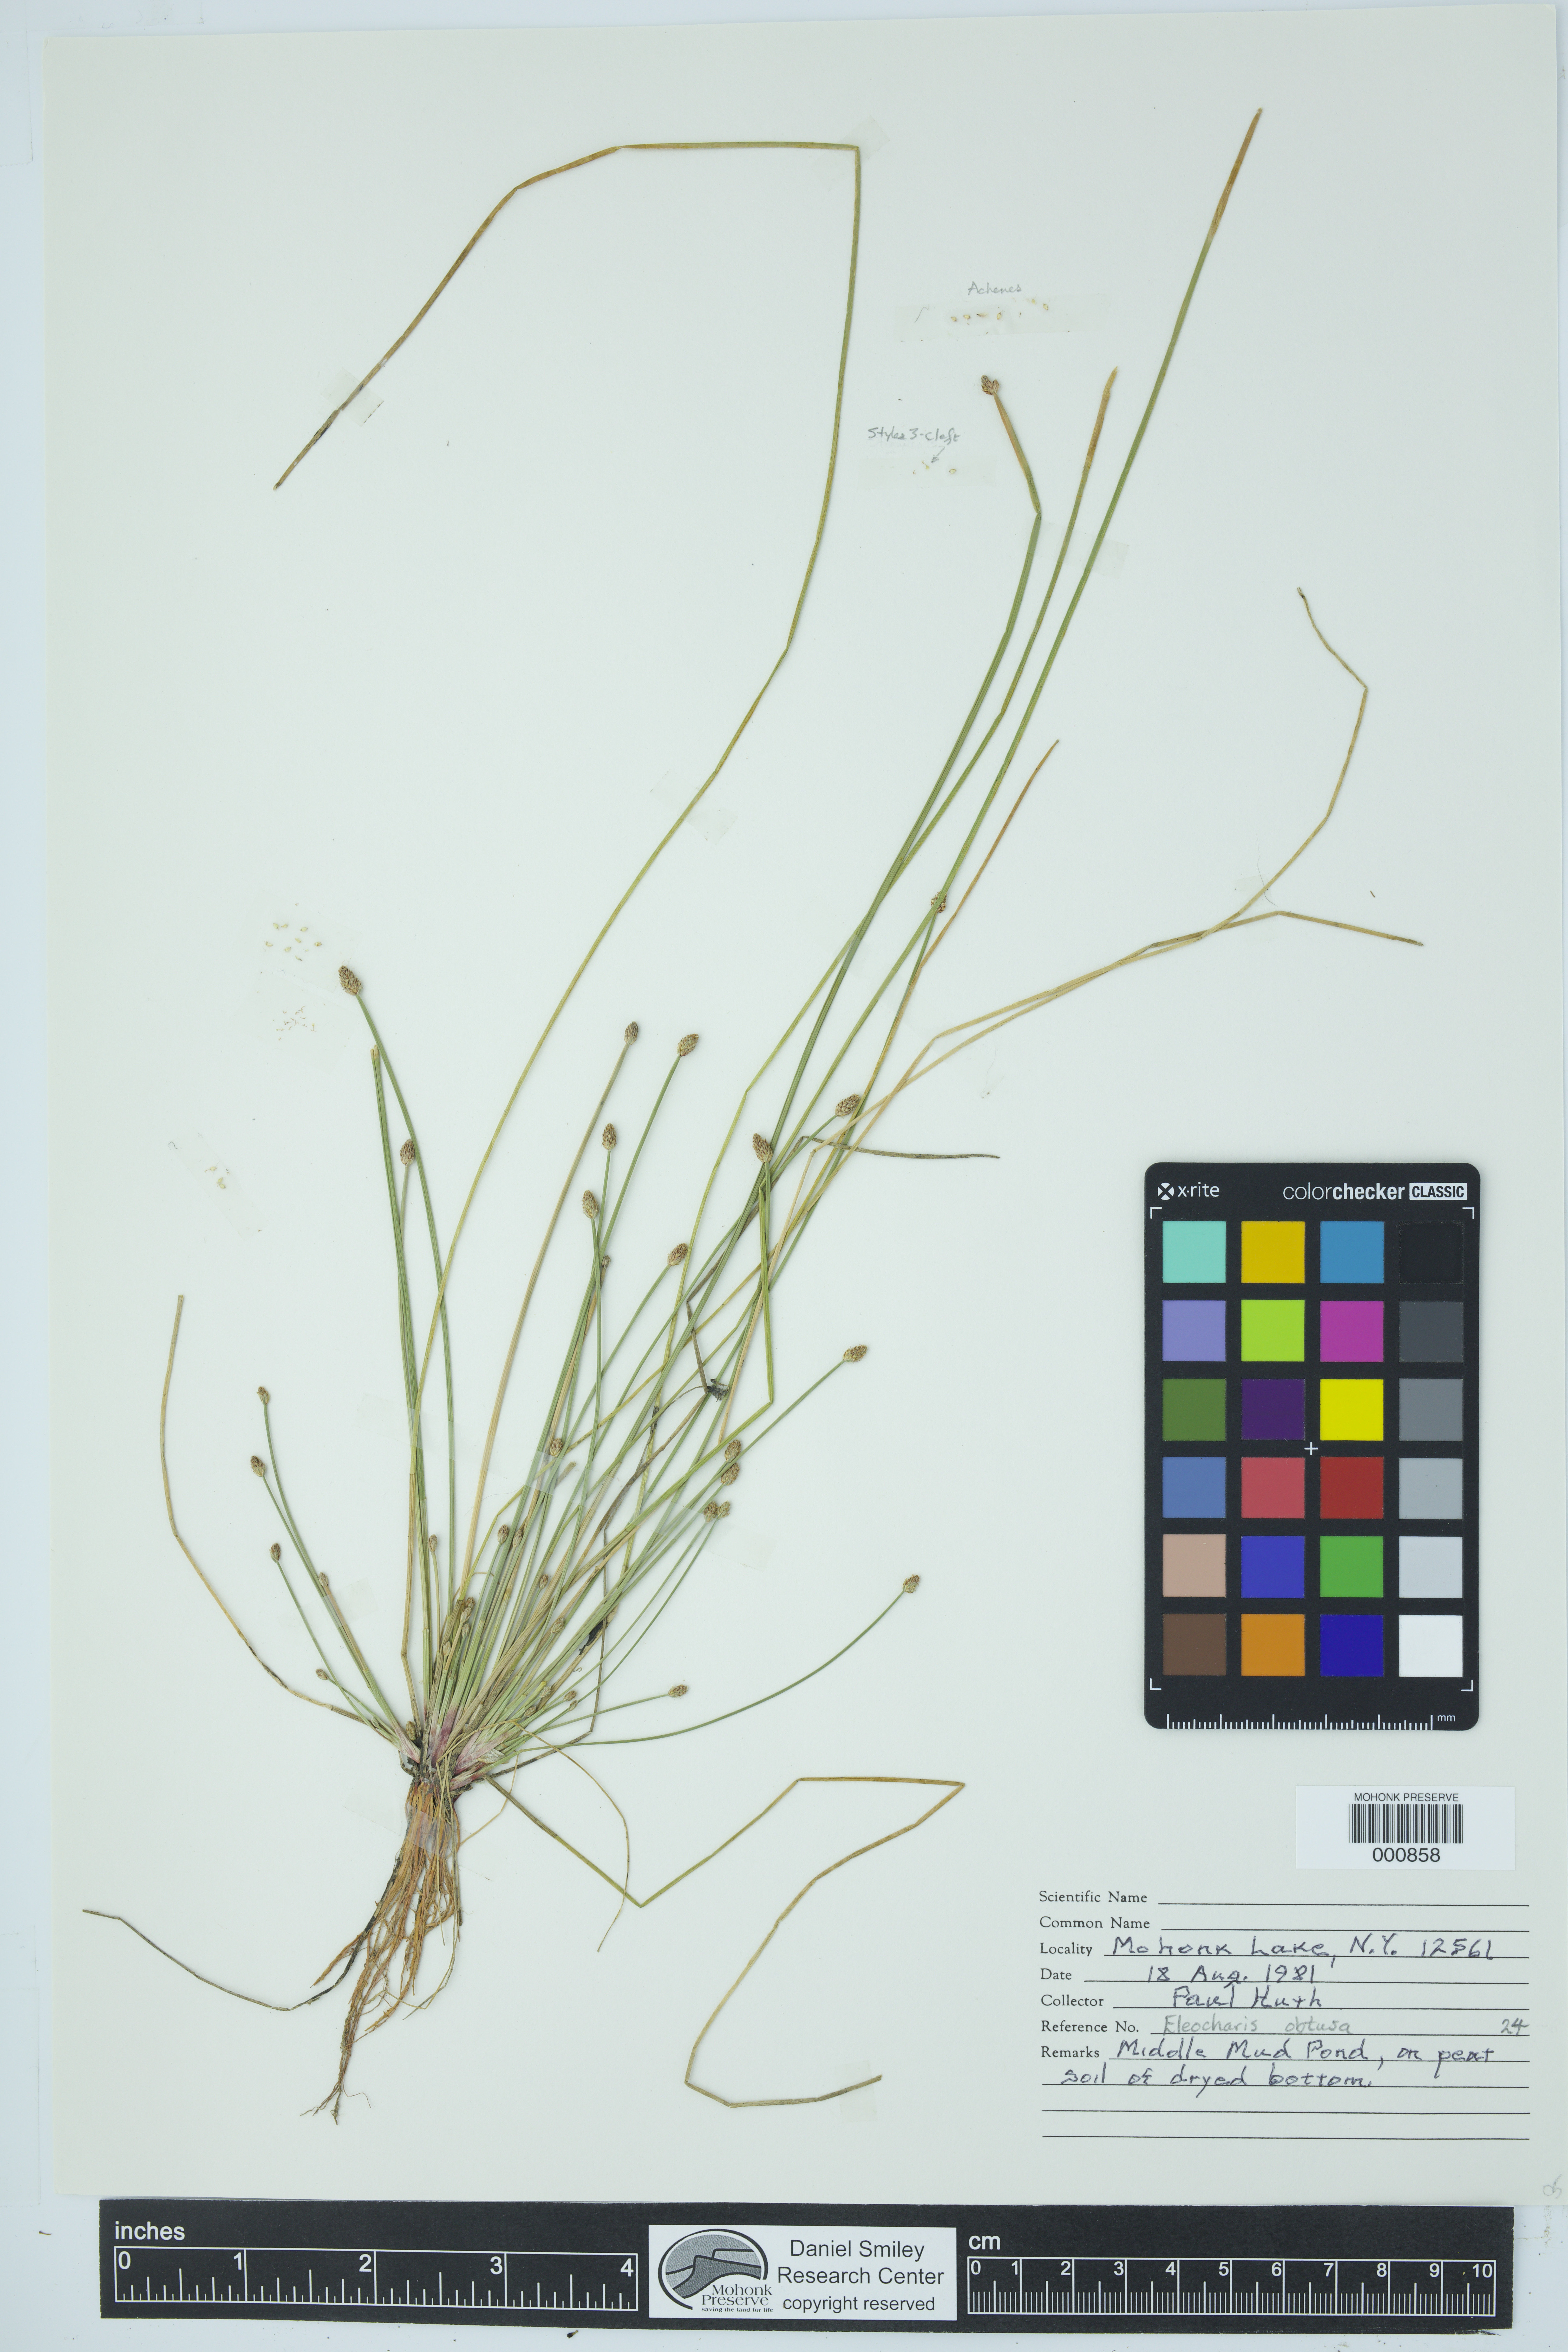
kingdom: Plantae
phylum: Tracheophyta
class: Liliopsida
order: Poales
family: Cyperaceae
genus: Eleocharis
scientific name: Eleocharis obtusa
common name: Blunt spikerush
